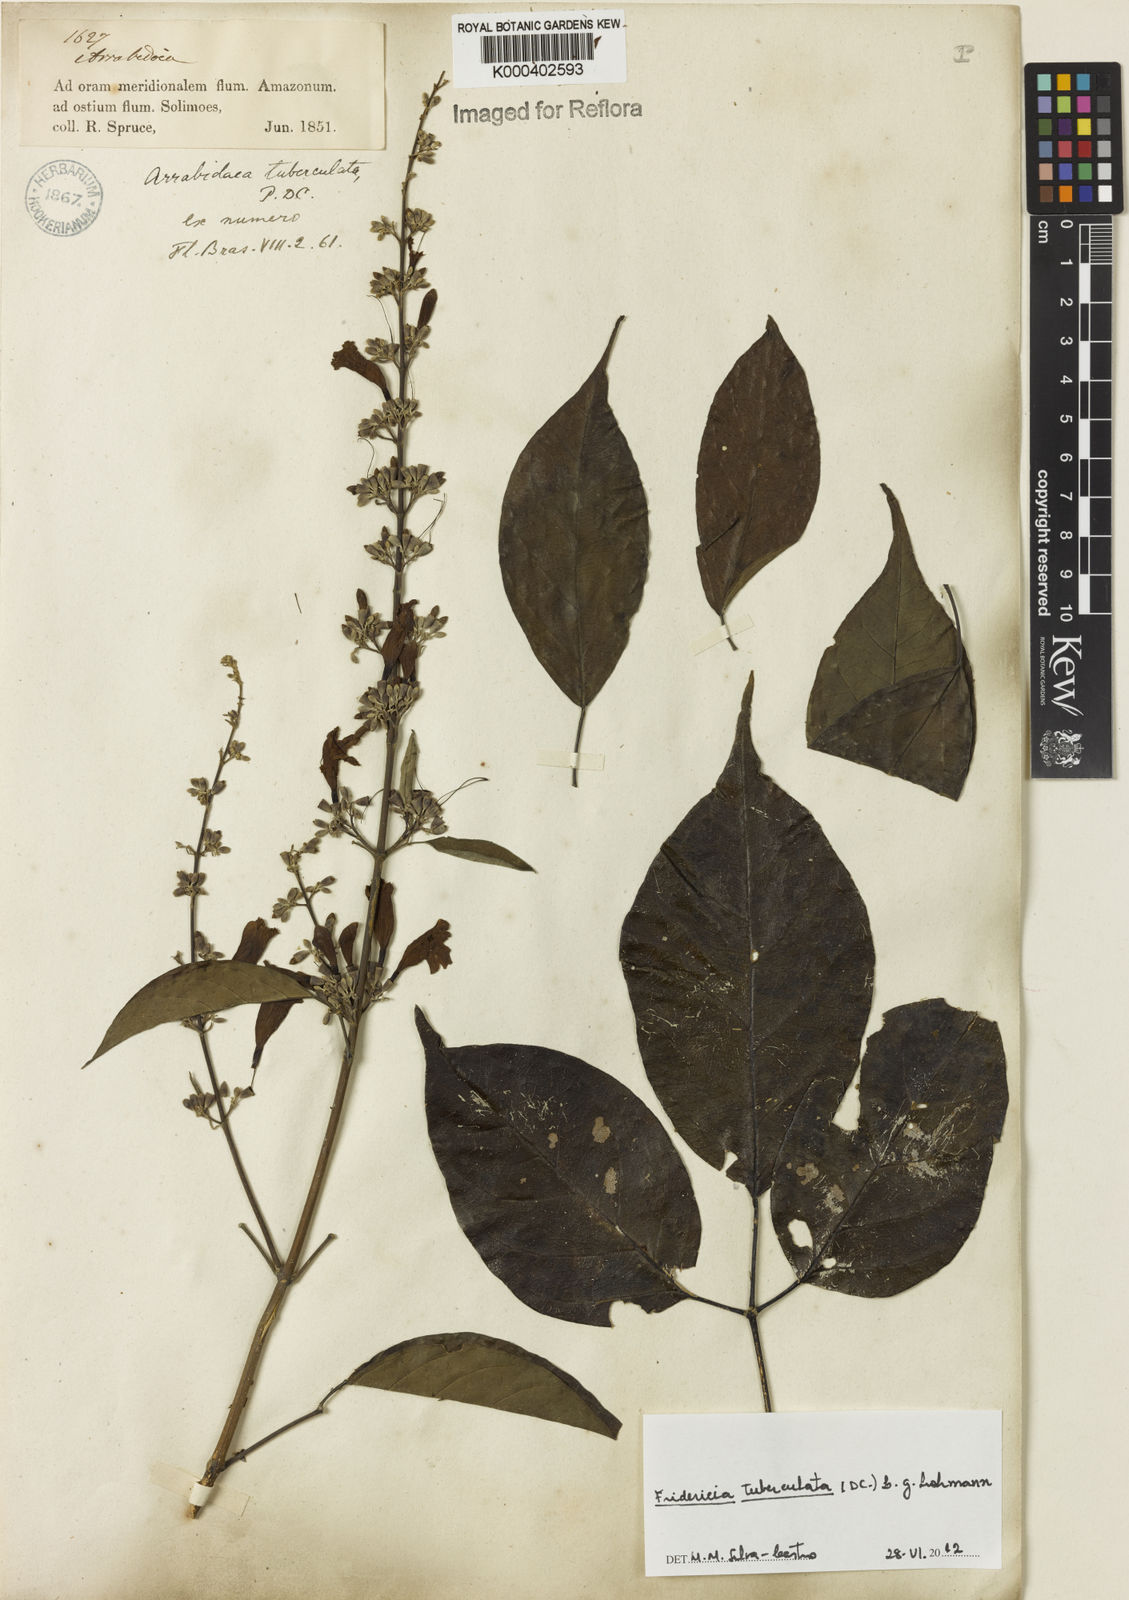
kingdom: Plantae
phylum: Tracheophyta
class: Magnoliopsida
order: Lamiales
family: Bignoniaceae
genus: Fridericia
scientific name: Fridericia tuberculata
